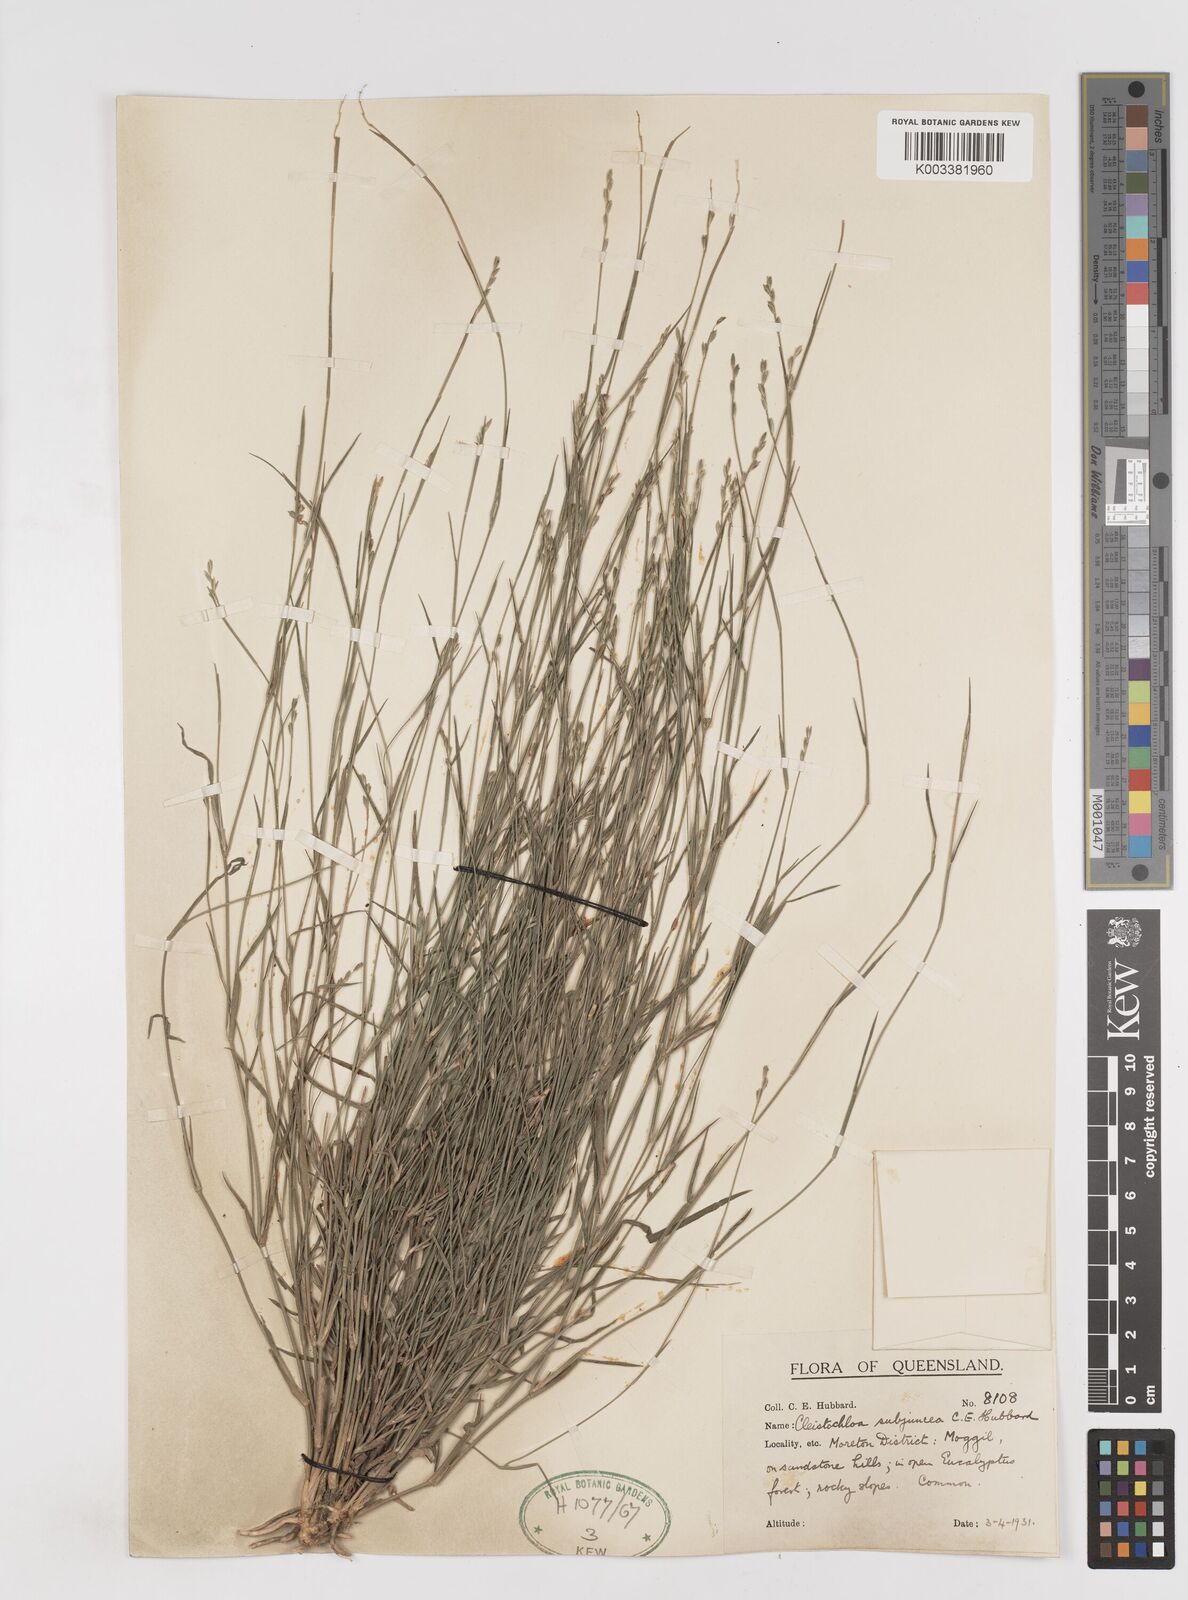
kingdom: Plantae
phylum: Tracheophyta
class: Liliopsida
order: Poales
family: Poaceae
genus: Cleistochloa
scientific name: Cleistochloa subjuncea
